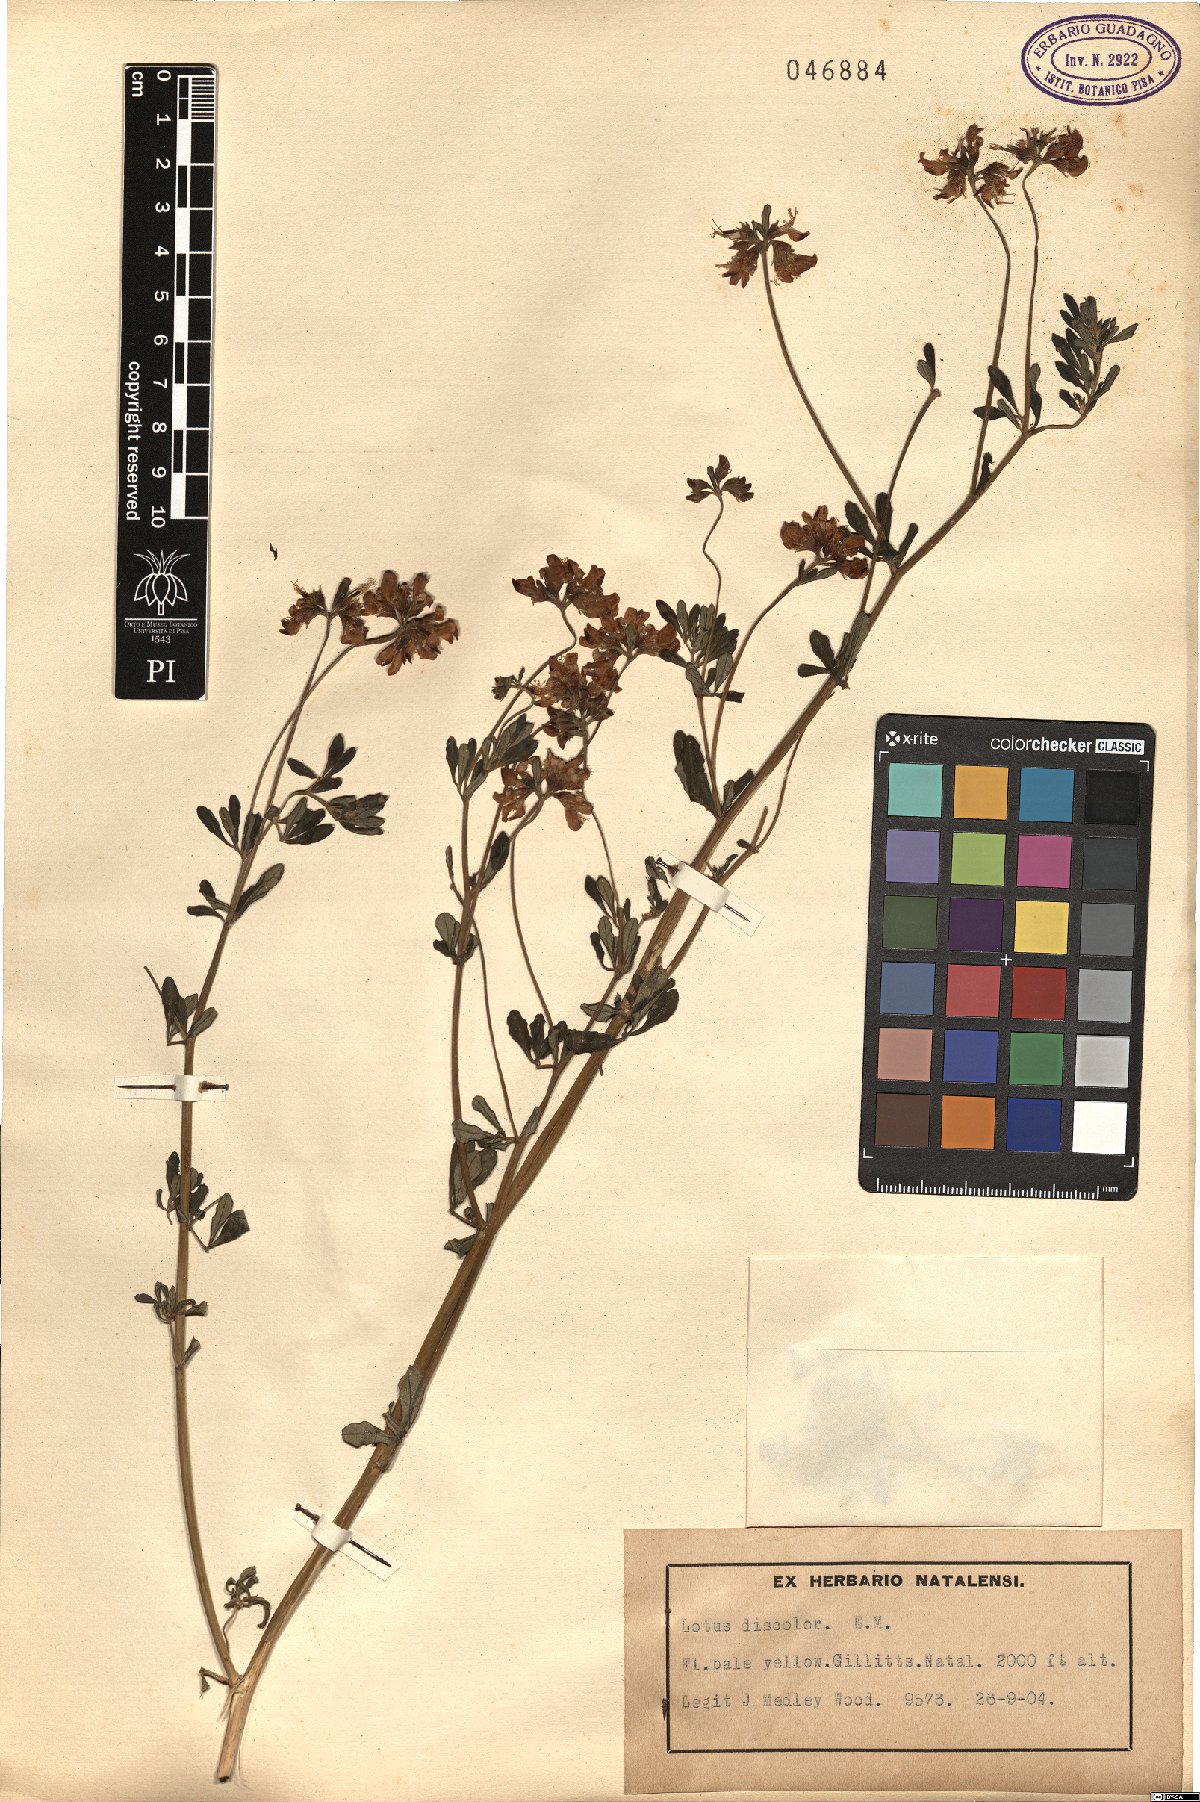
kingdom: Plantae
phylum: Tracheophyta
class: Magnoliopsida
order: Fabales
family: Fabaceae
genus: Lotus
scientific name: Lotus discolor
